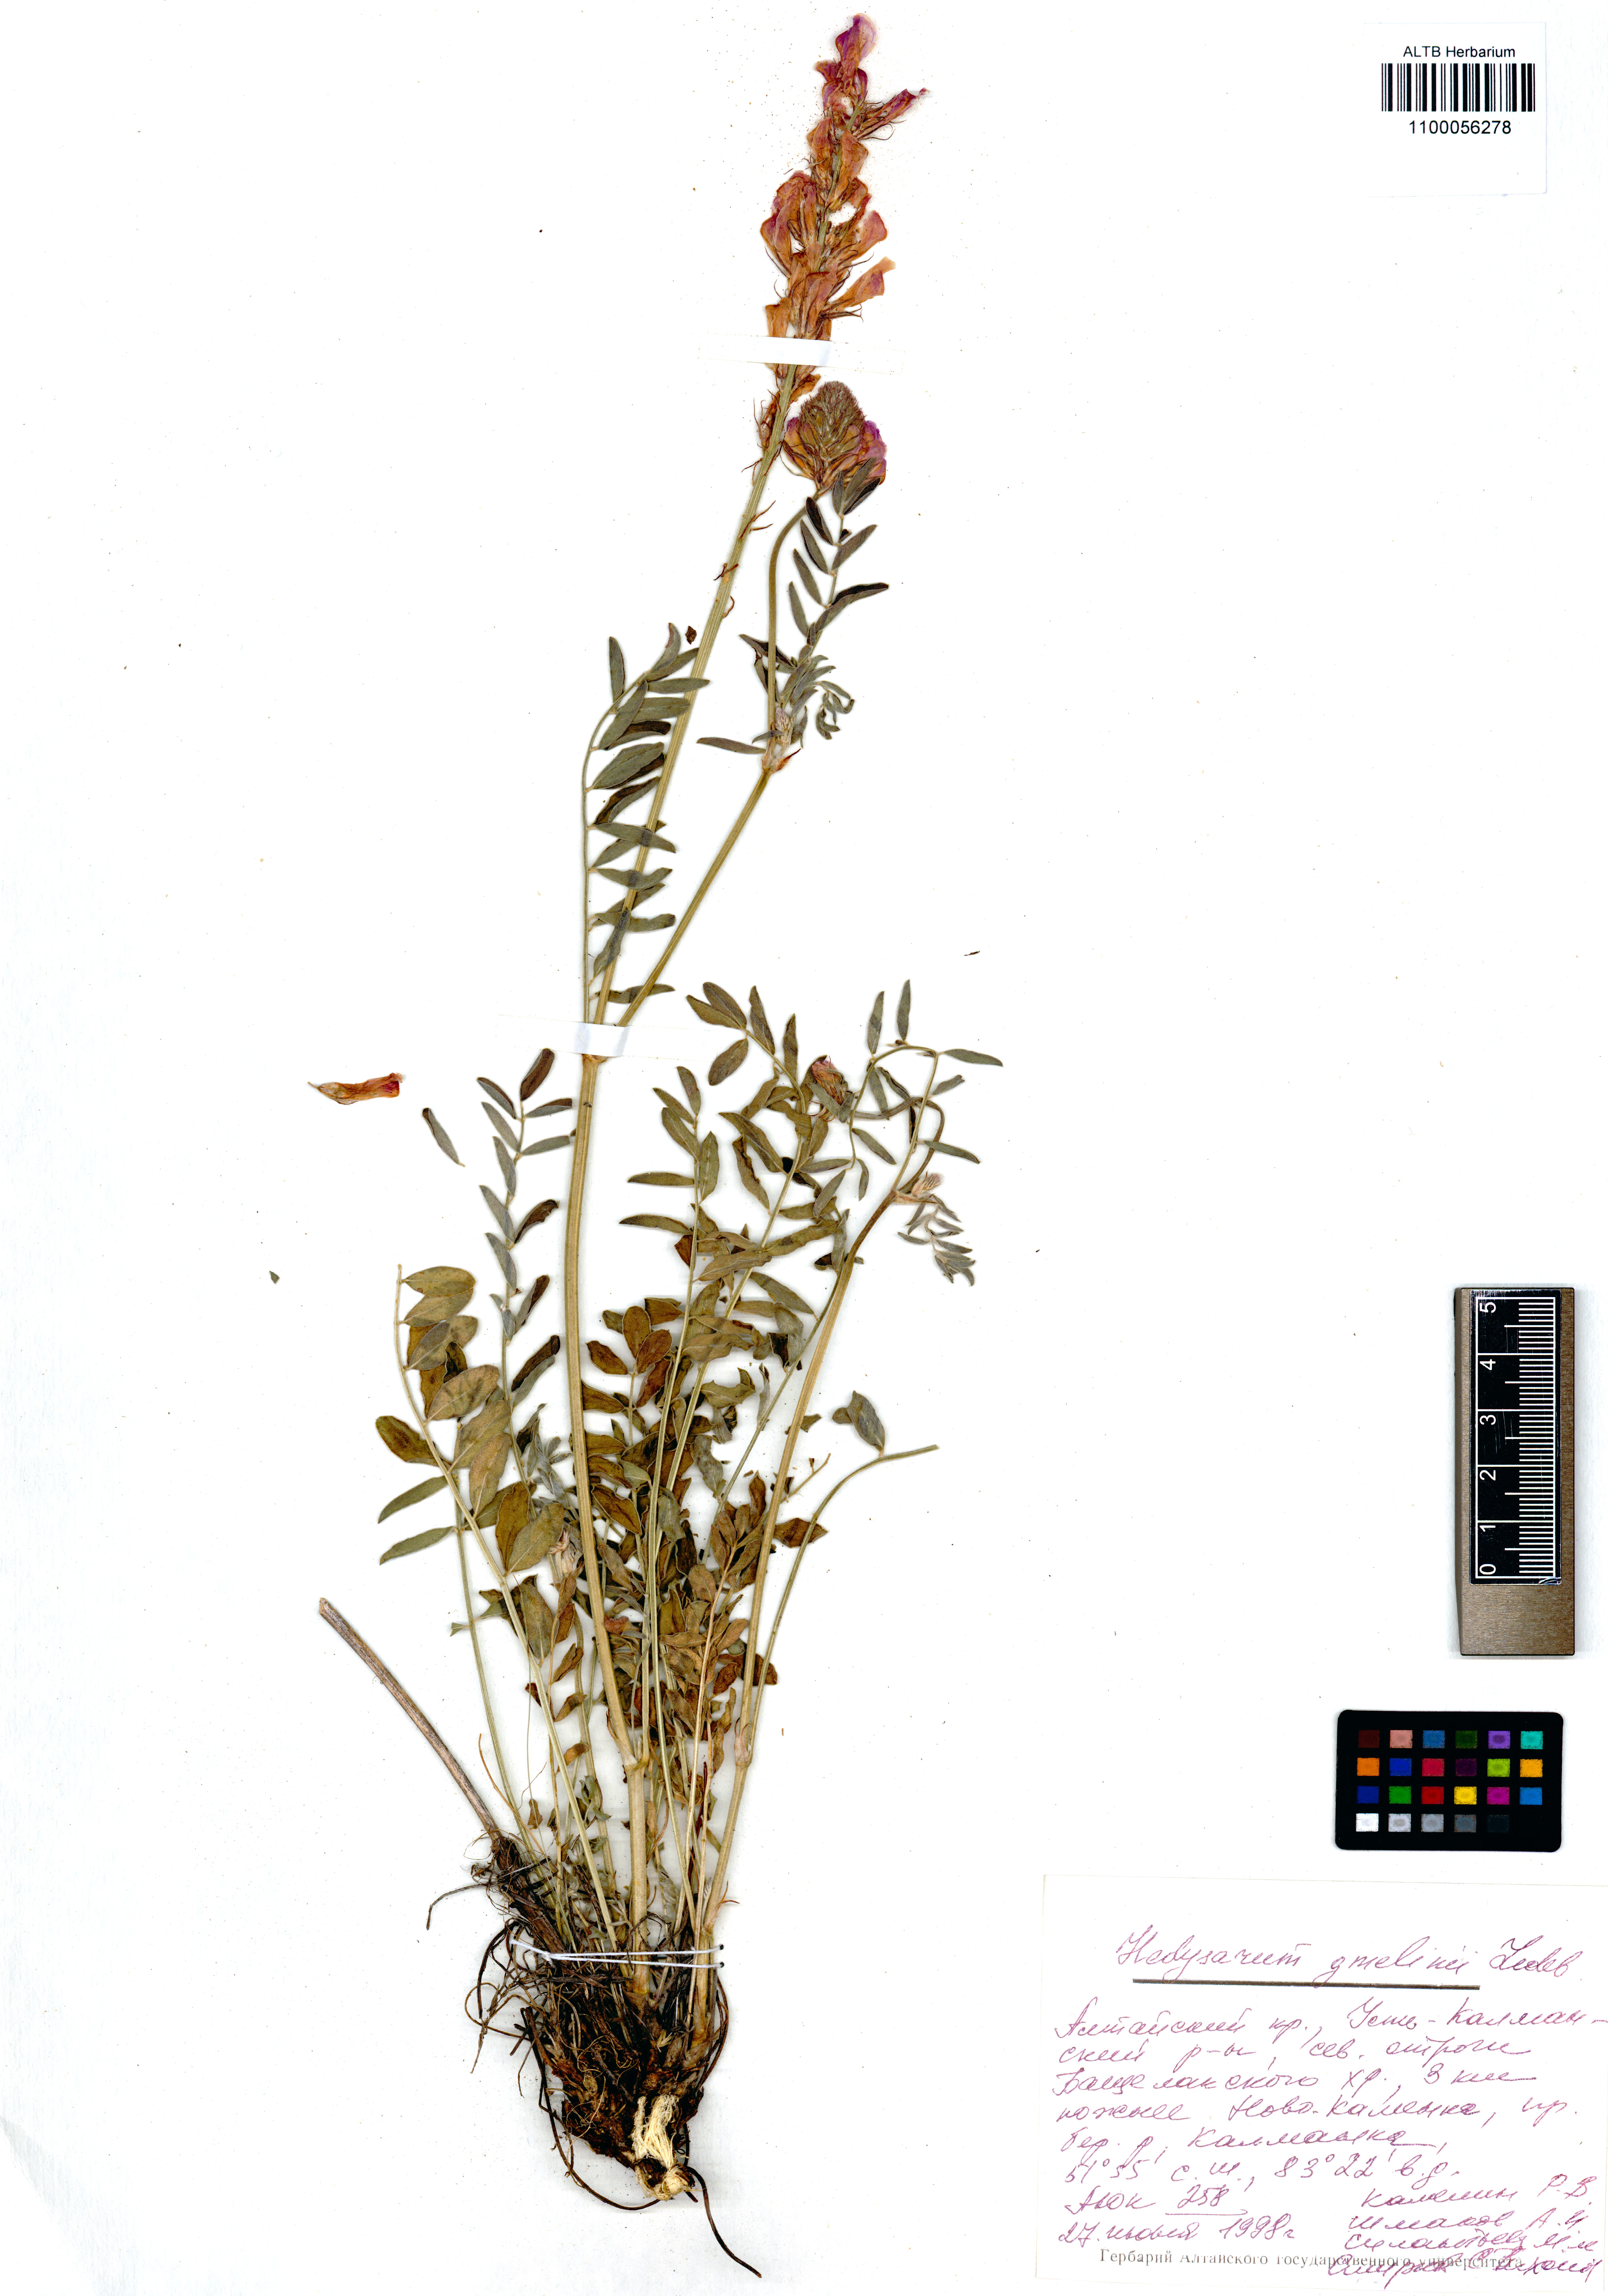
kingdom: Plantae
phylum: Tracheophyta
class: Magnoliopsida
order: Fabales
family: Fabaceae
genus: Hedysarum
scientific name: Hedysarum gmelinii
